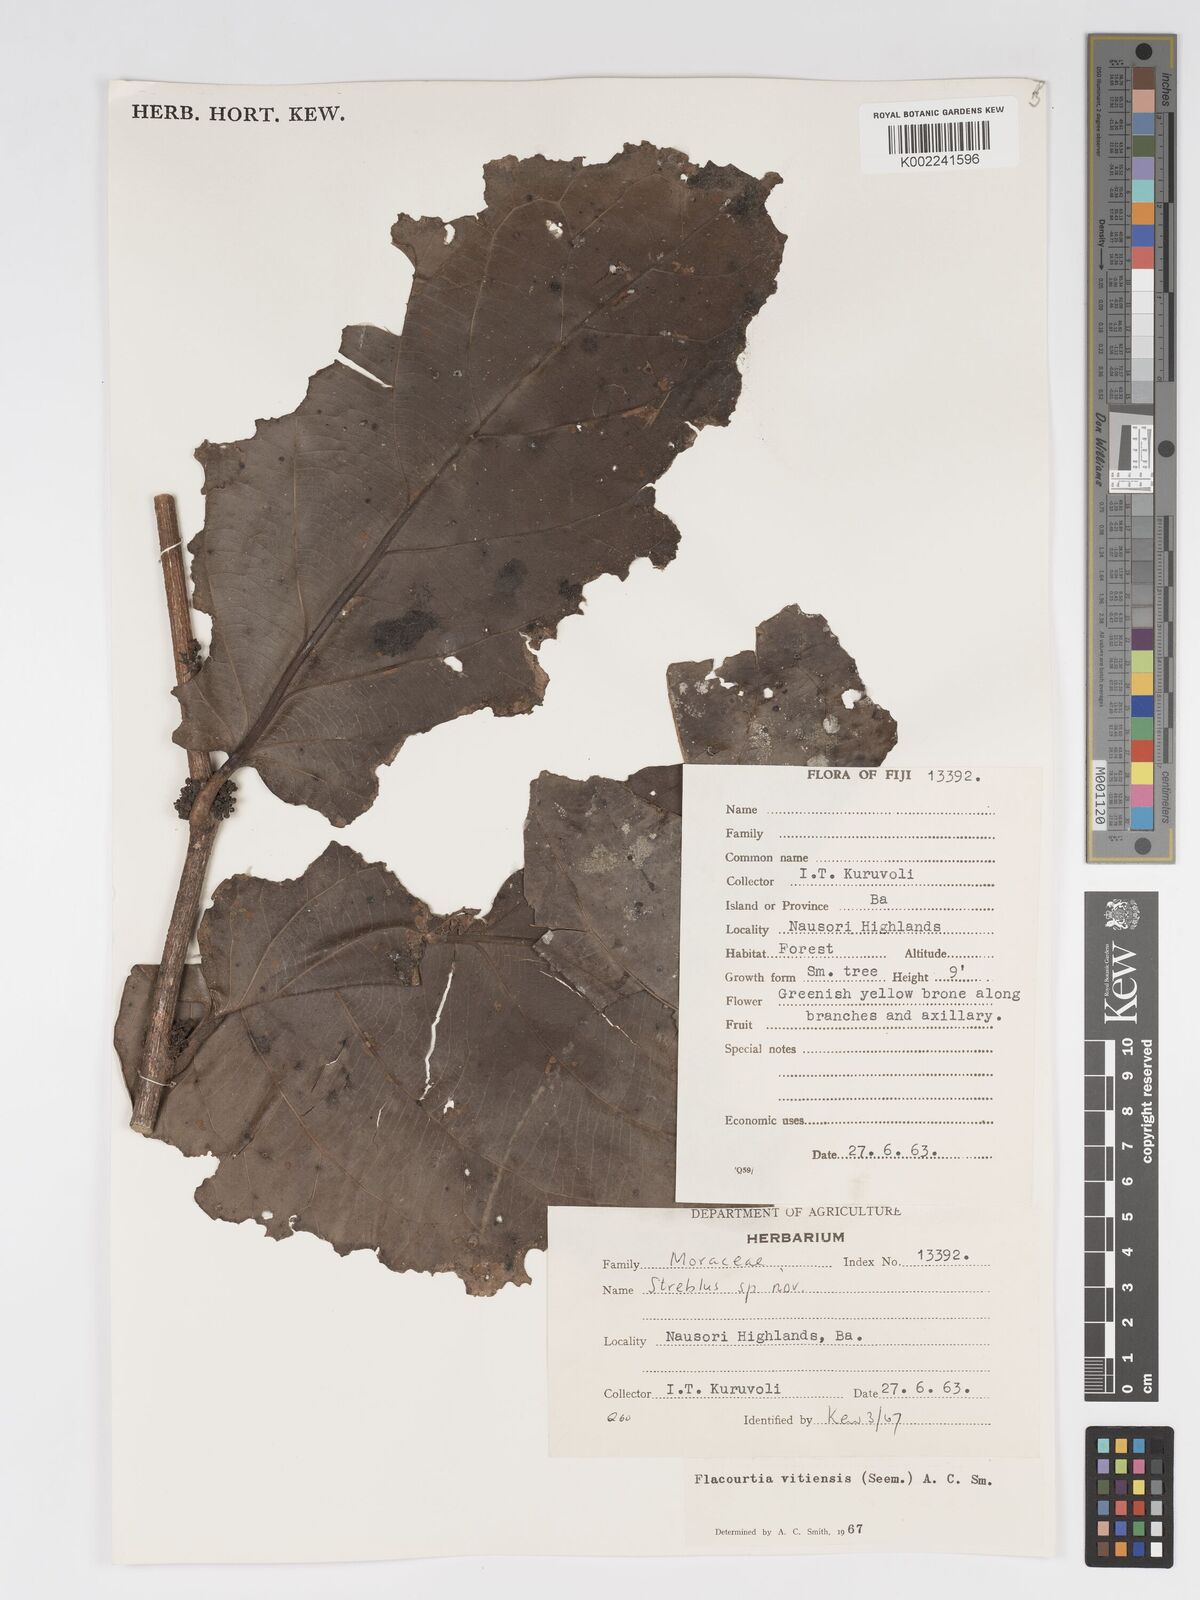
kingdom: Plantae
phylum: Tracheophyta
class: Magnoliopsida
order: Malpighiales
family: Salicaceae
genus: Flacourtia
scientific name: Flacourtia vitiensis
